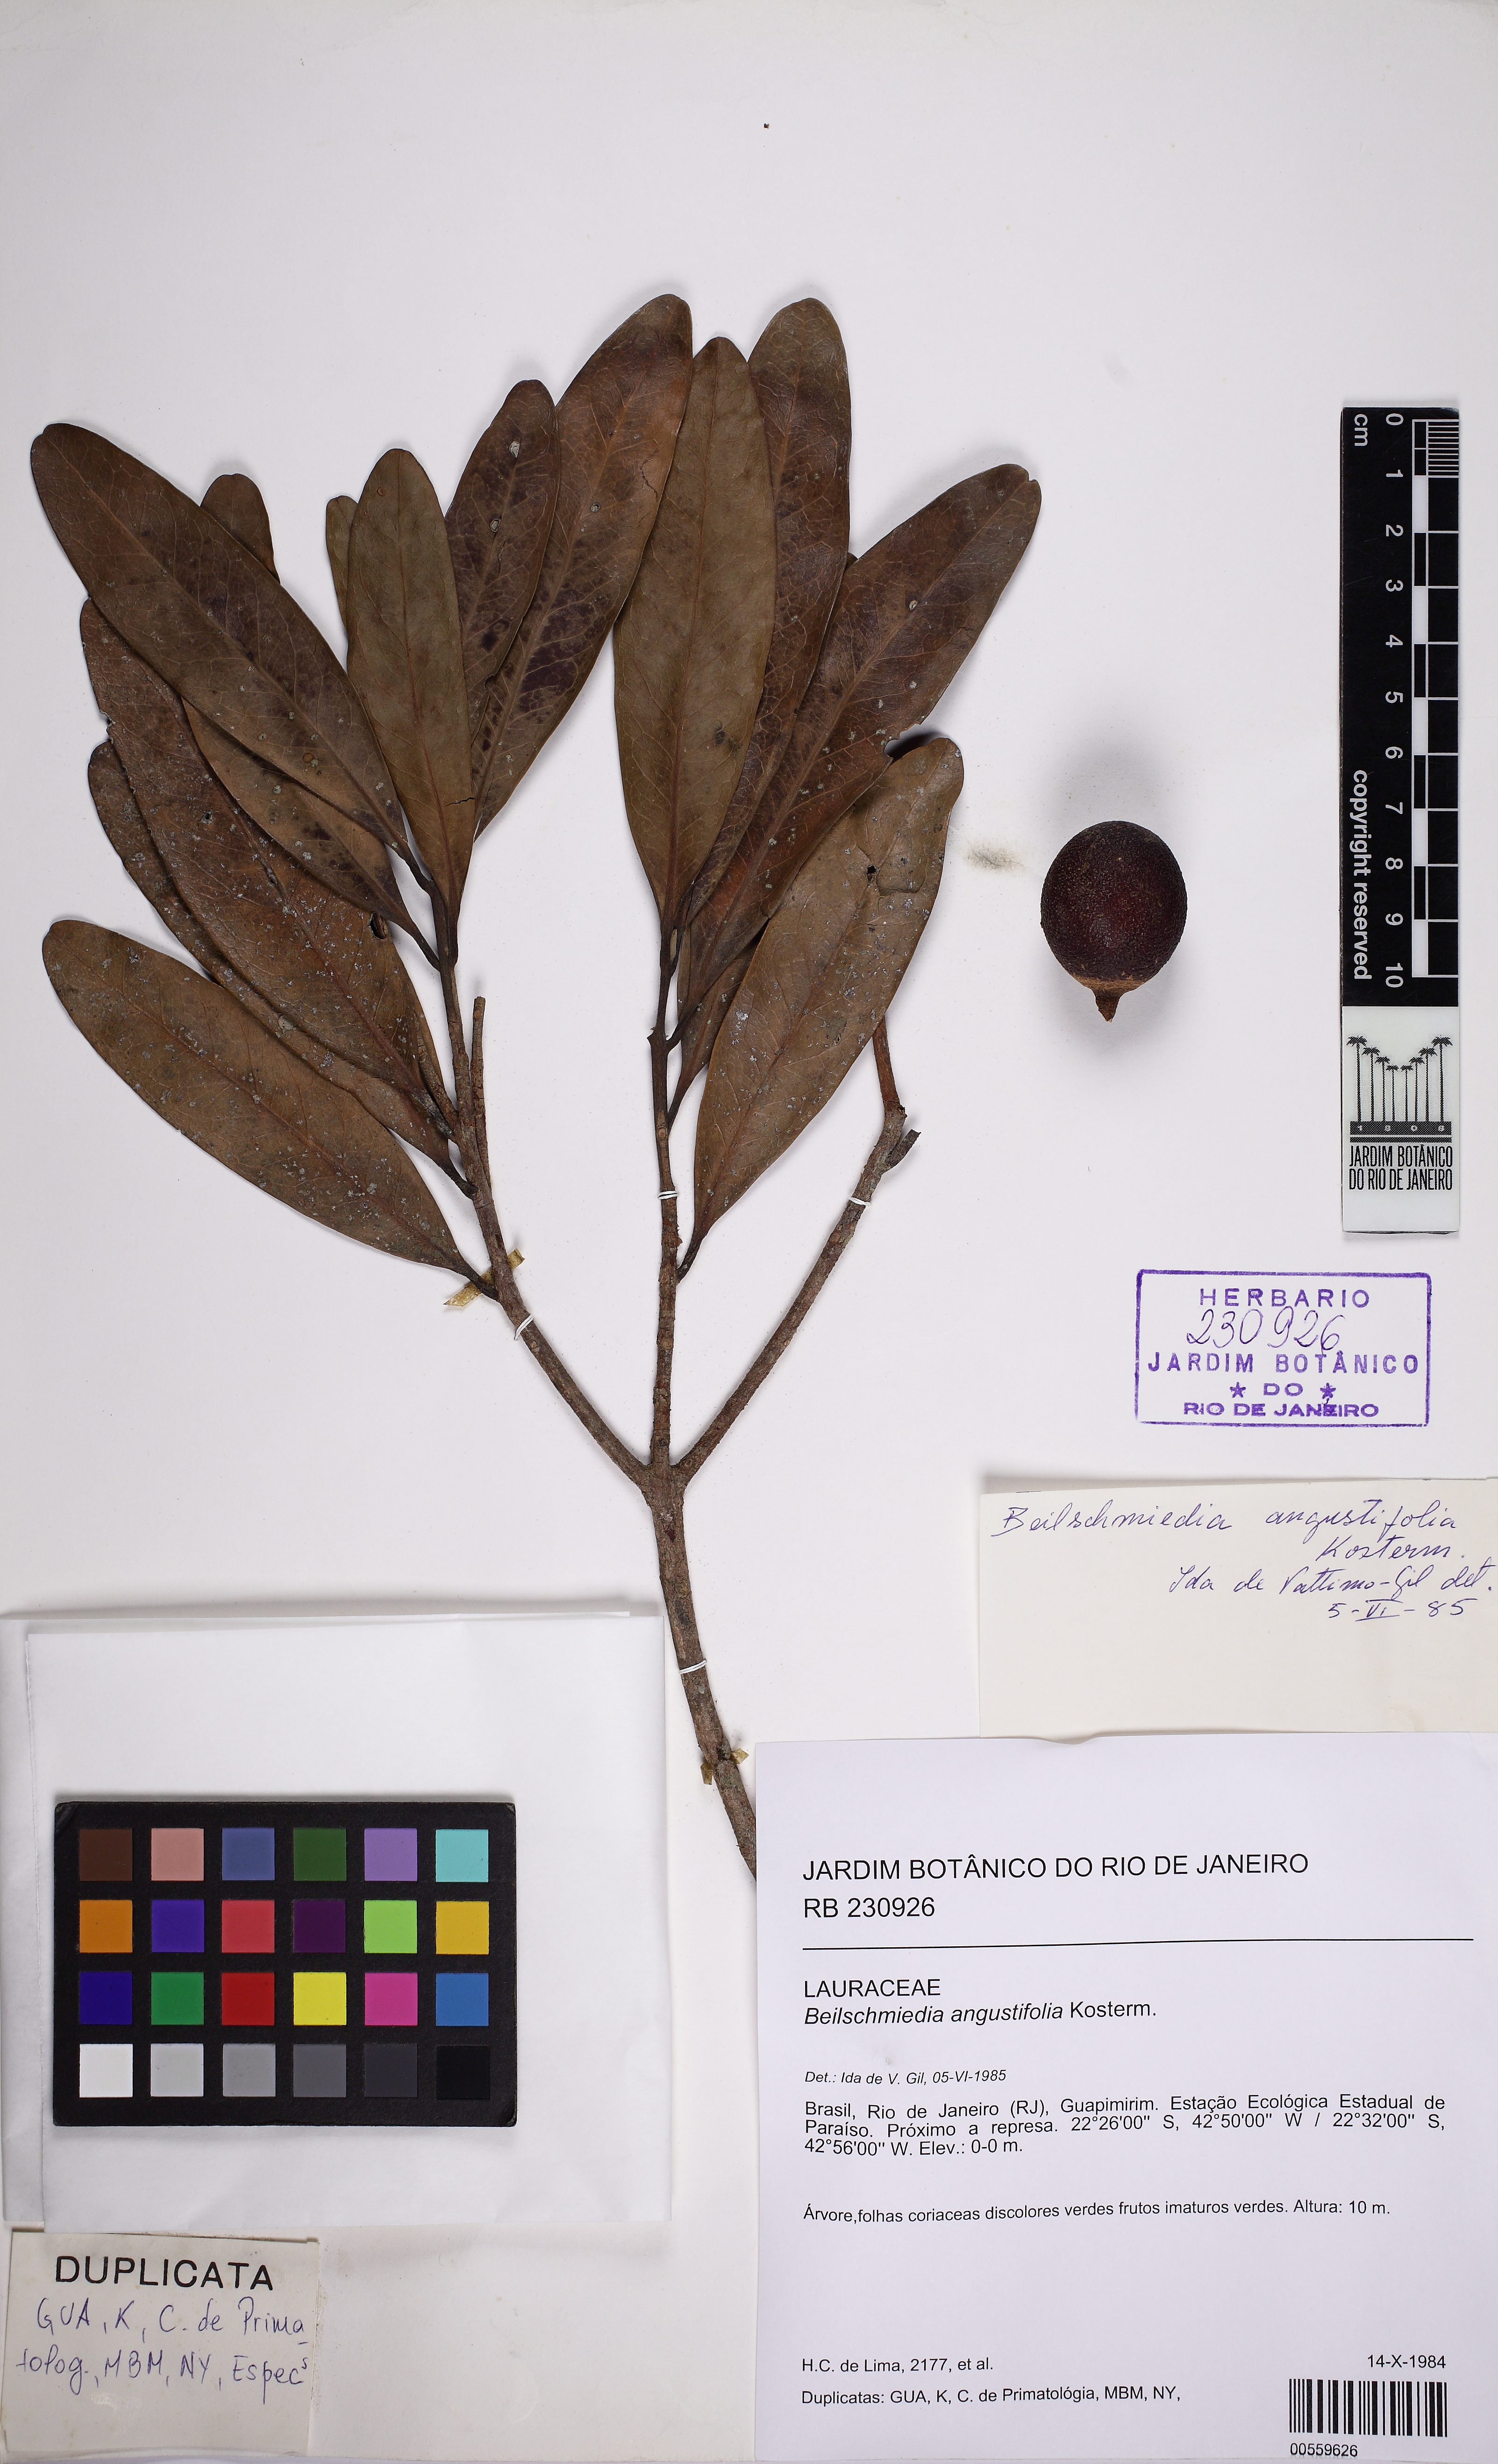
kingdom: Plantae
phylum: Tracheophyta
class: Magnoliopsida
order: Laurales
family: Lauraceae
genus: Beilschmiedia
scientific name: Beilschmiedia angustifolia
